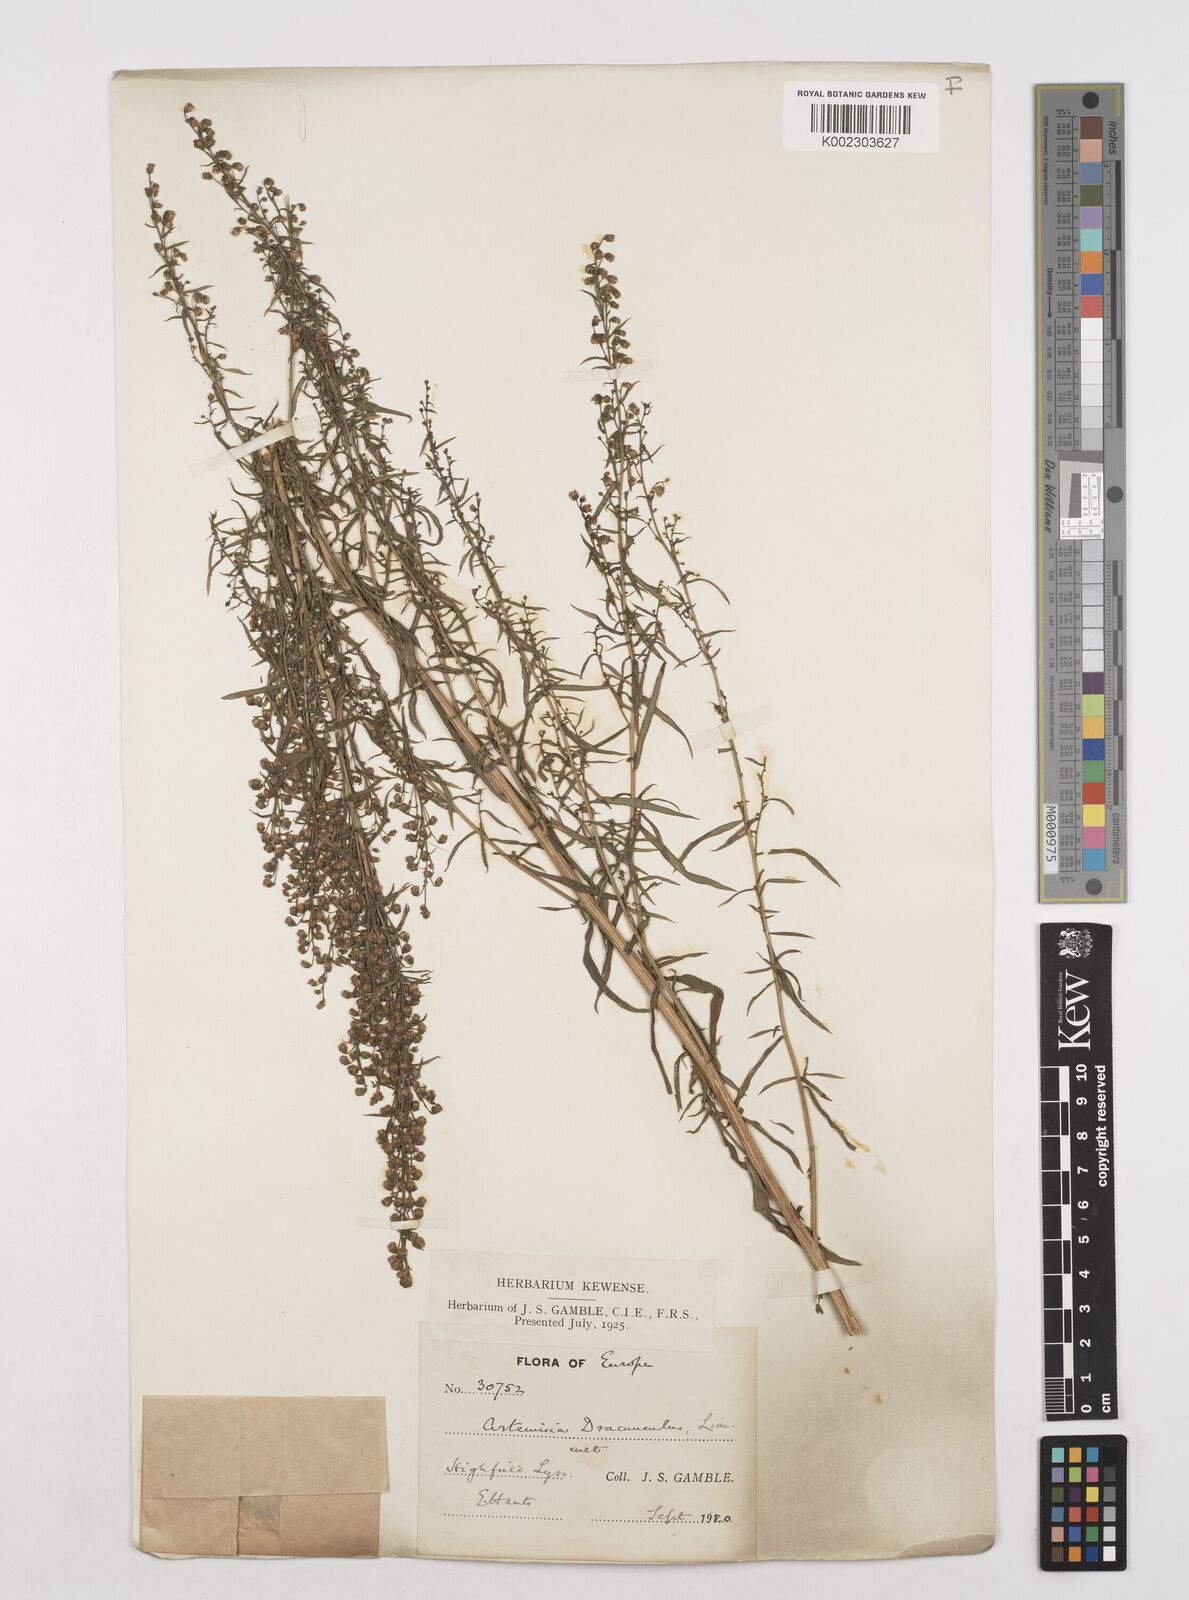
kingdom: Plantae
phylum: Tracheophyta
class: Magnoliopsida
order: Asterales
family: Asteraceae
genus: Artemisia
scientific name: Artemisia dracunculus
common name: Tarragon
